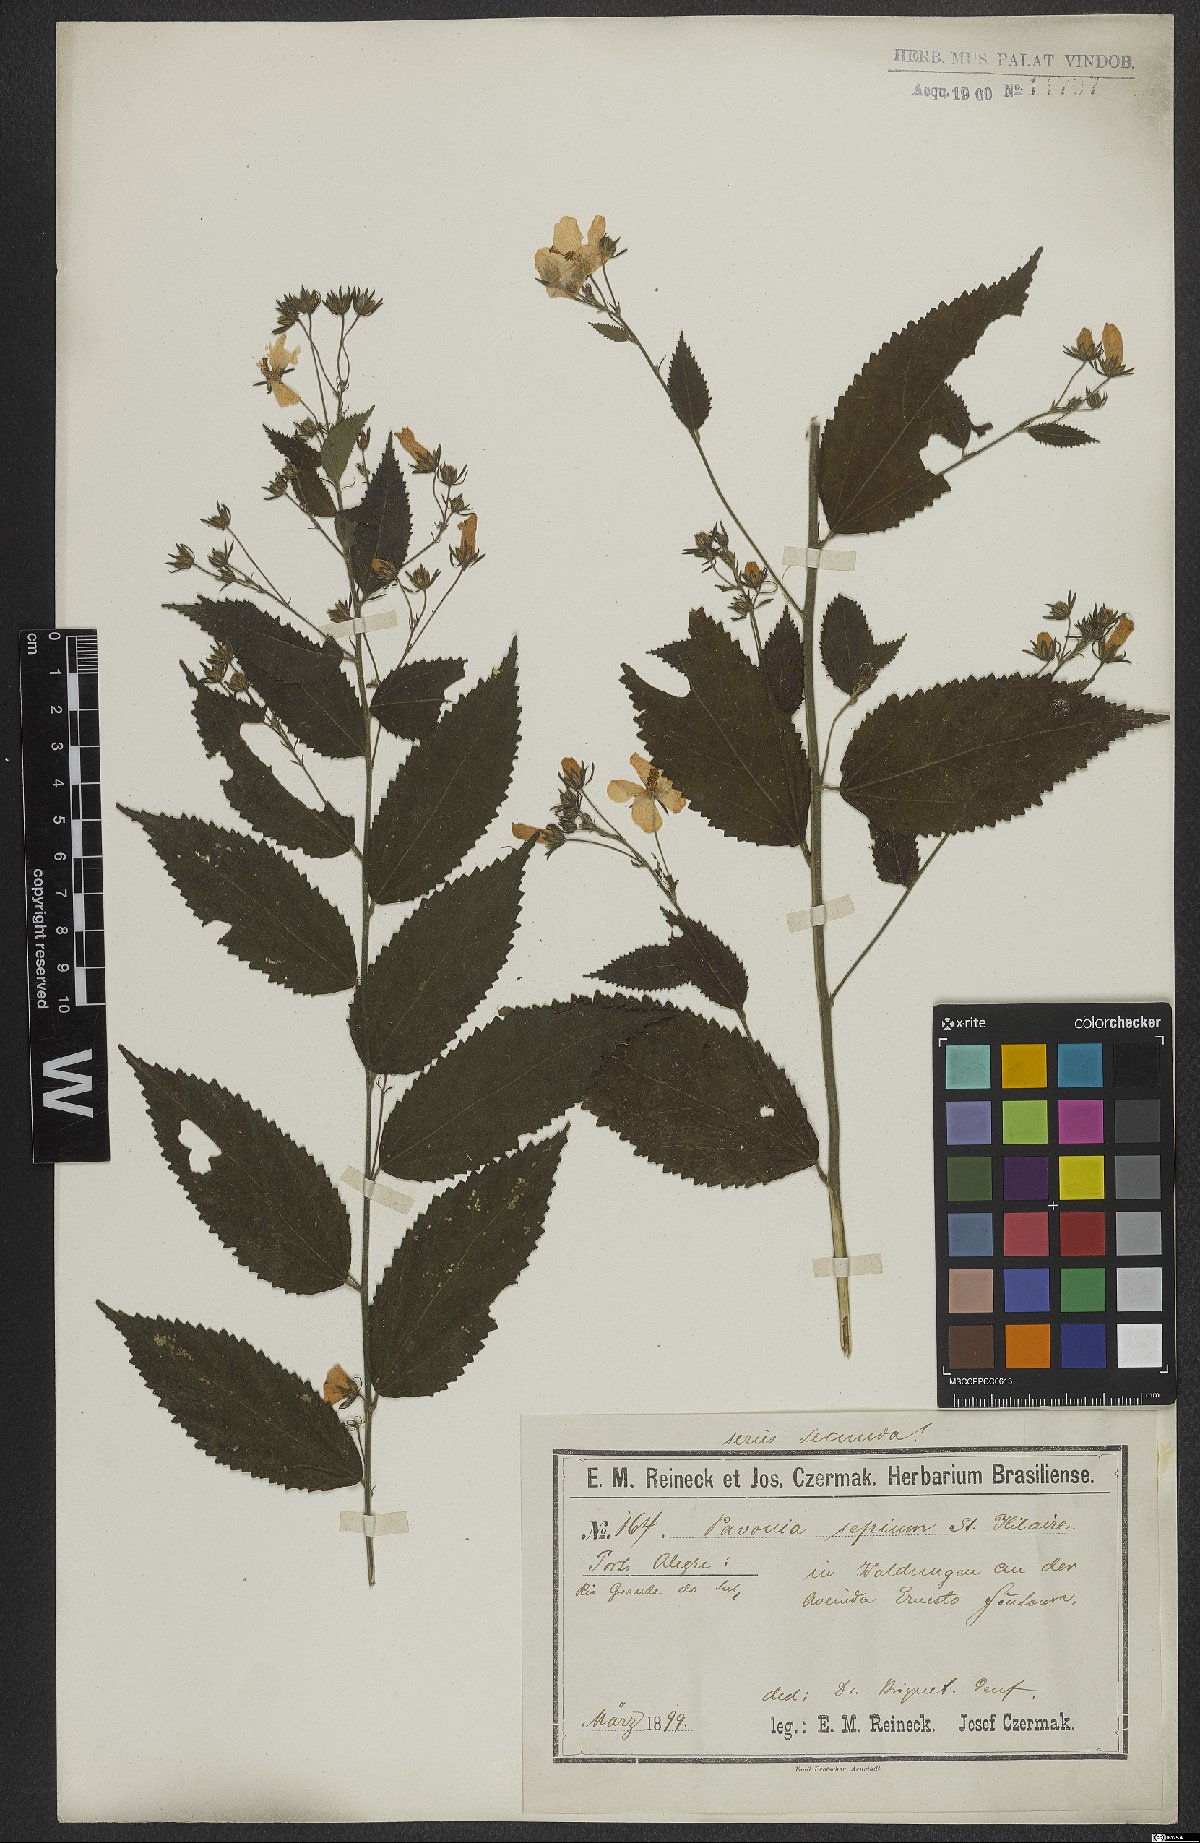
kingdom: Plantae
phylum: Tracheophyta
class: Magnoliopsida
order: Malvales
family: Malvaceae
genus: Pavonia
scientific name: Pavonia sepium
